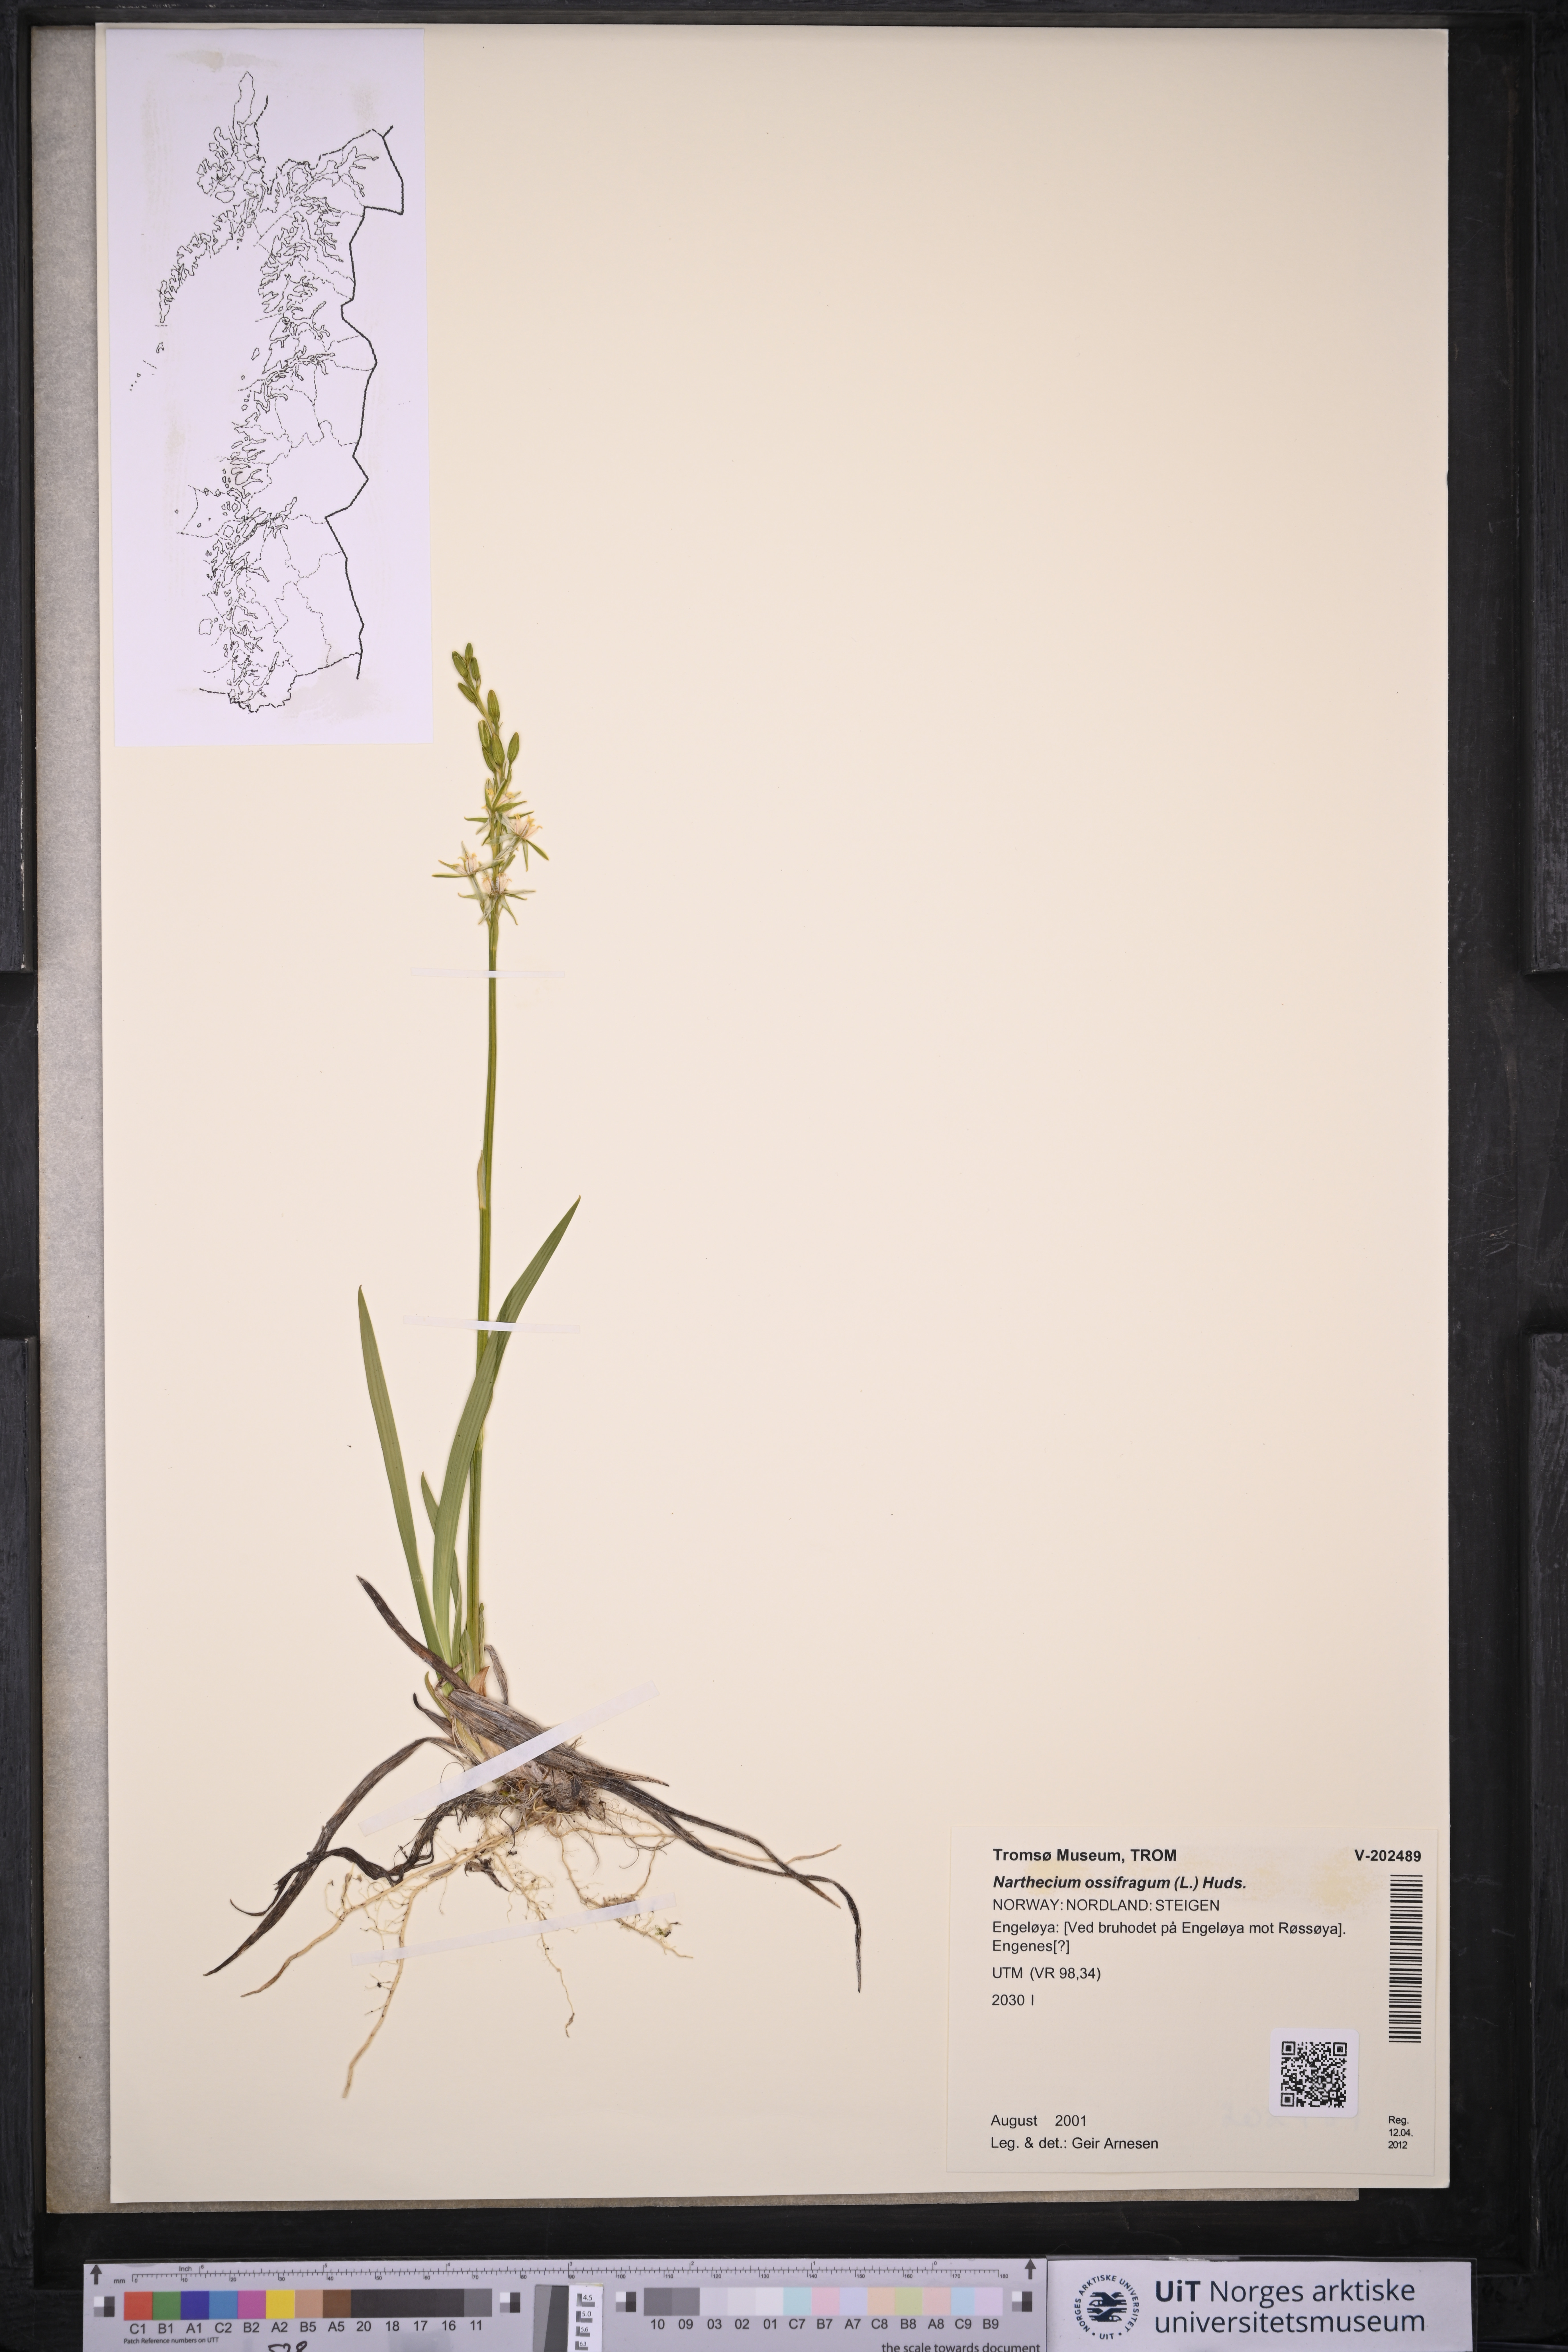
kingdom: Plantae
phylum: Tracheophyta
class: Liliopsida
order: Dioscoreales
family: Nartheciaceae
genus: Narthecium
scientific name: Narthecium ossifragum
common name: Bog asphodel
